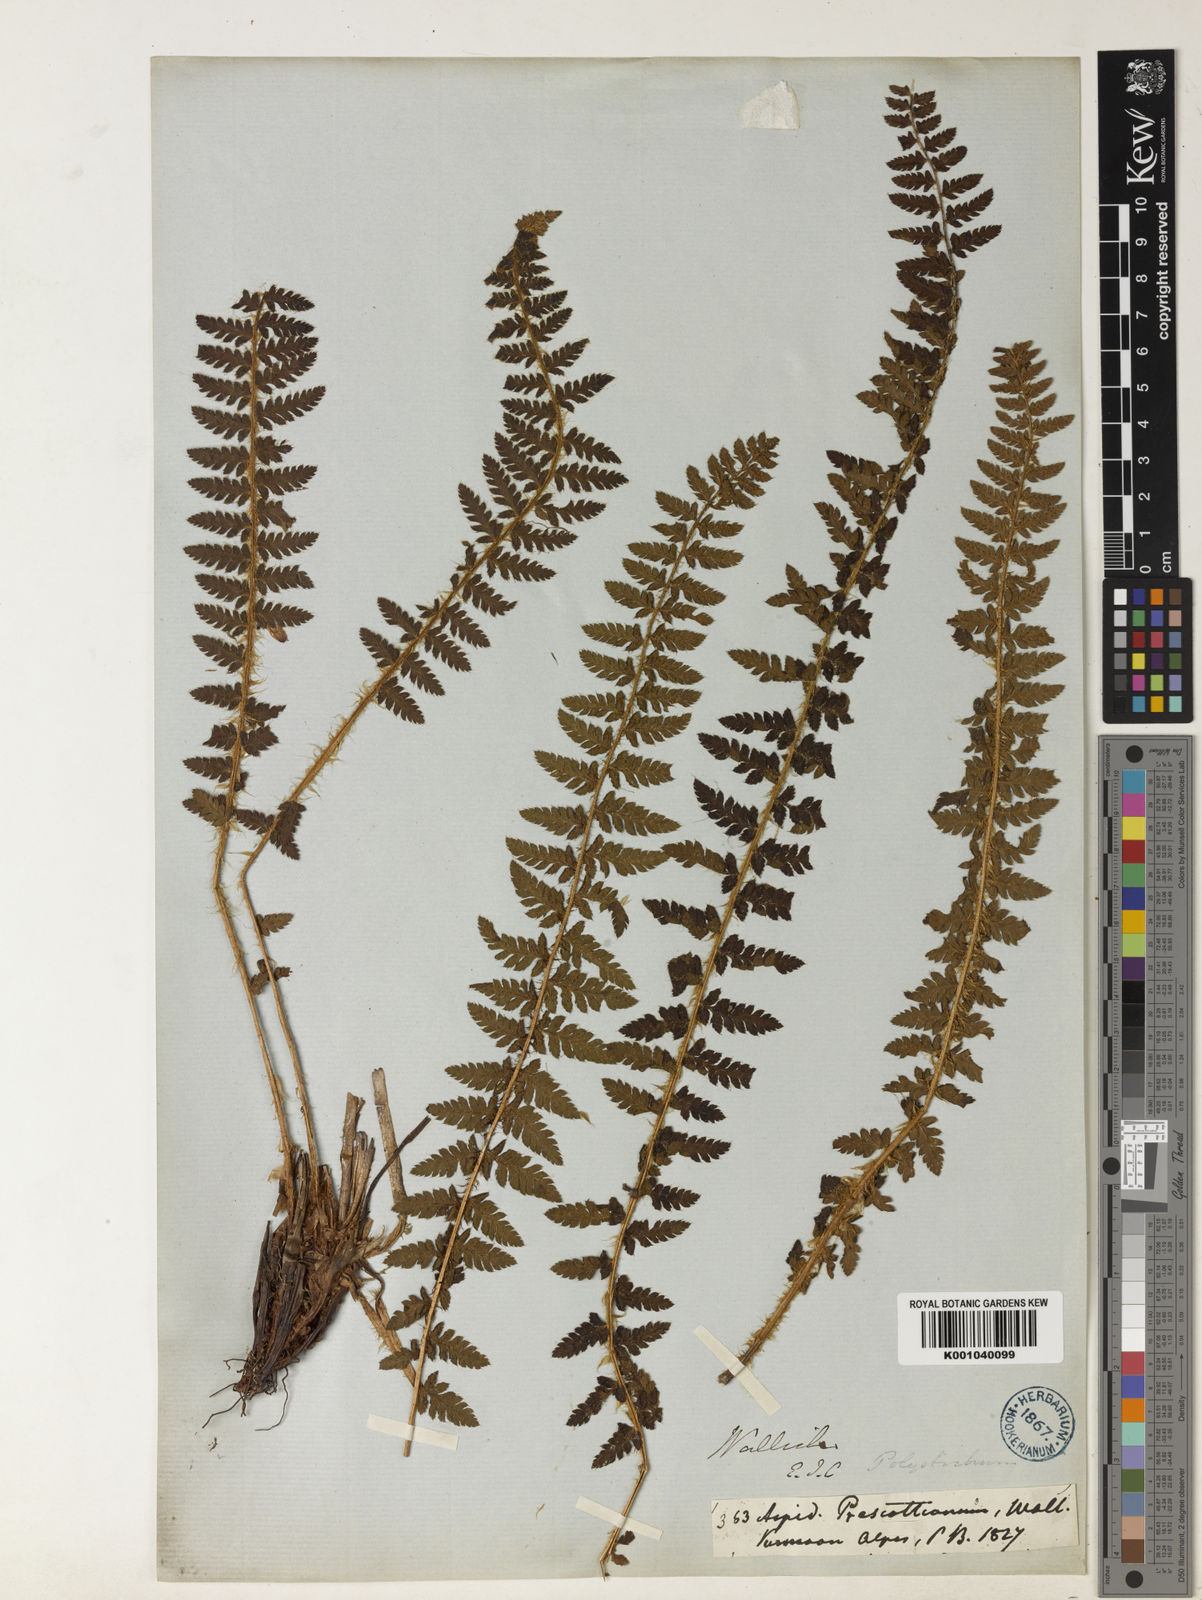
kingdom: Plantae
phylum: Tracheophyta
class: Polypodiopsida
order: Polypodiales
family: Dryopteridaceae
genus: Polystichum
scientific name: Polystichum prescottianum
